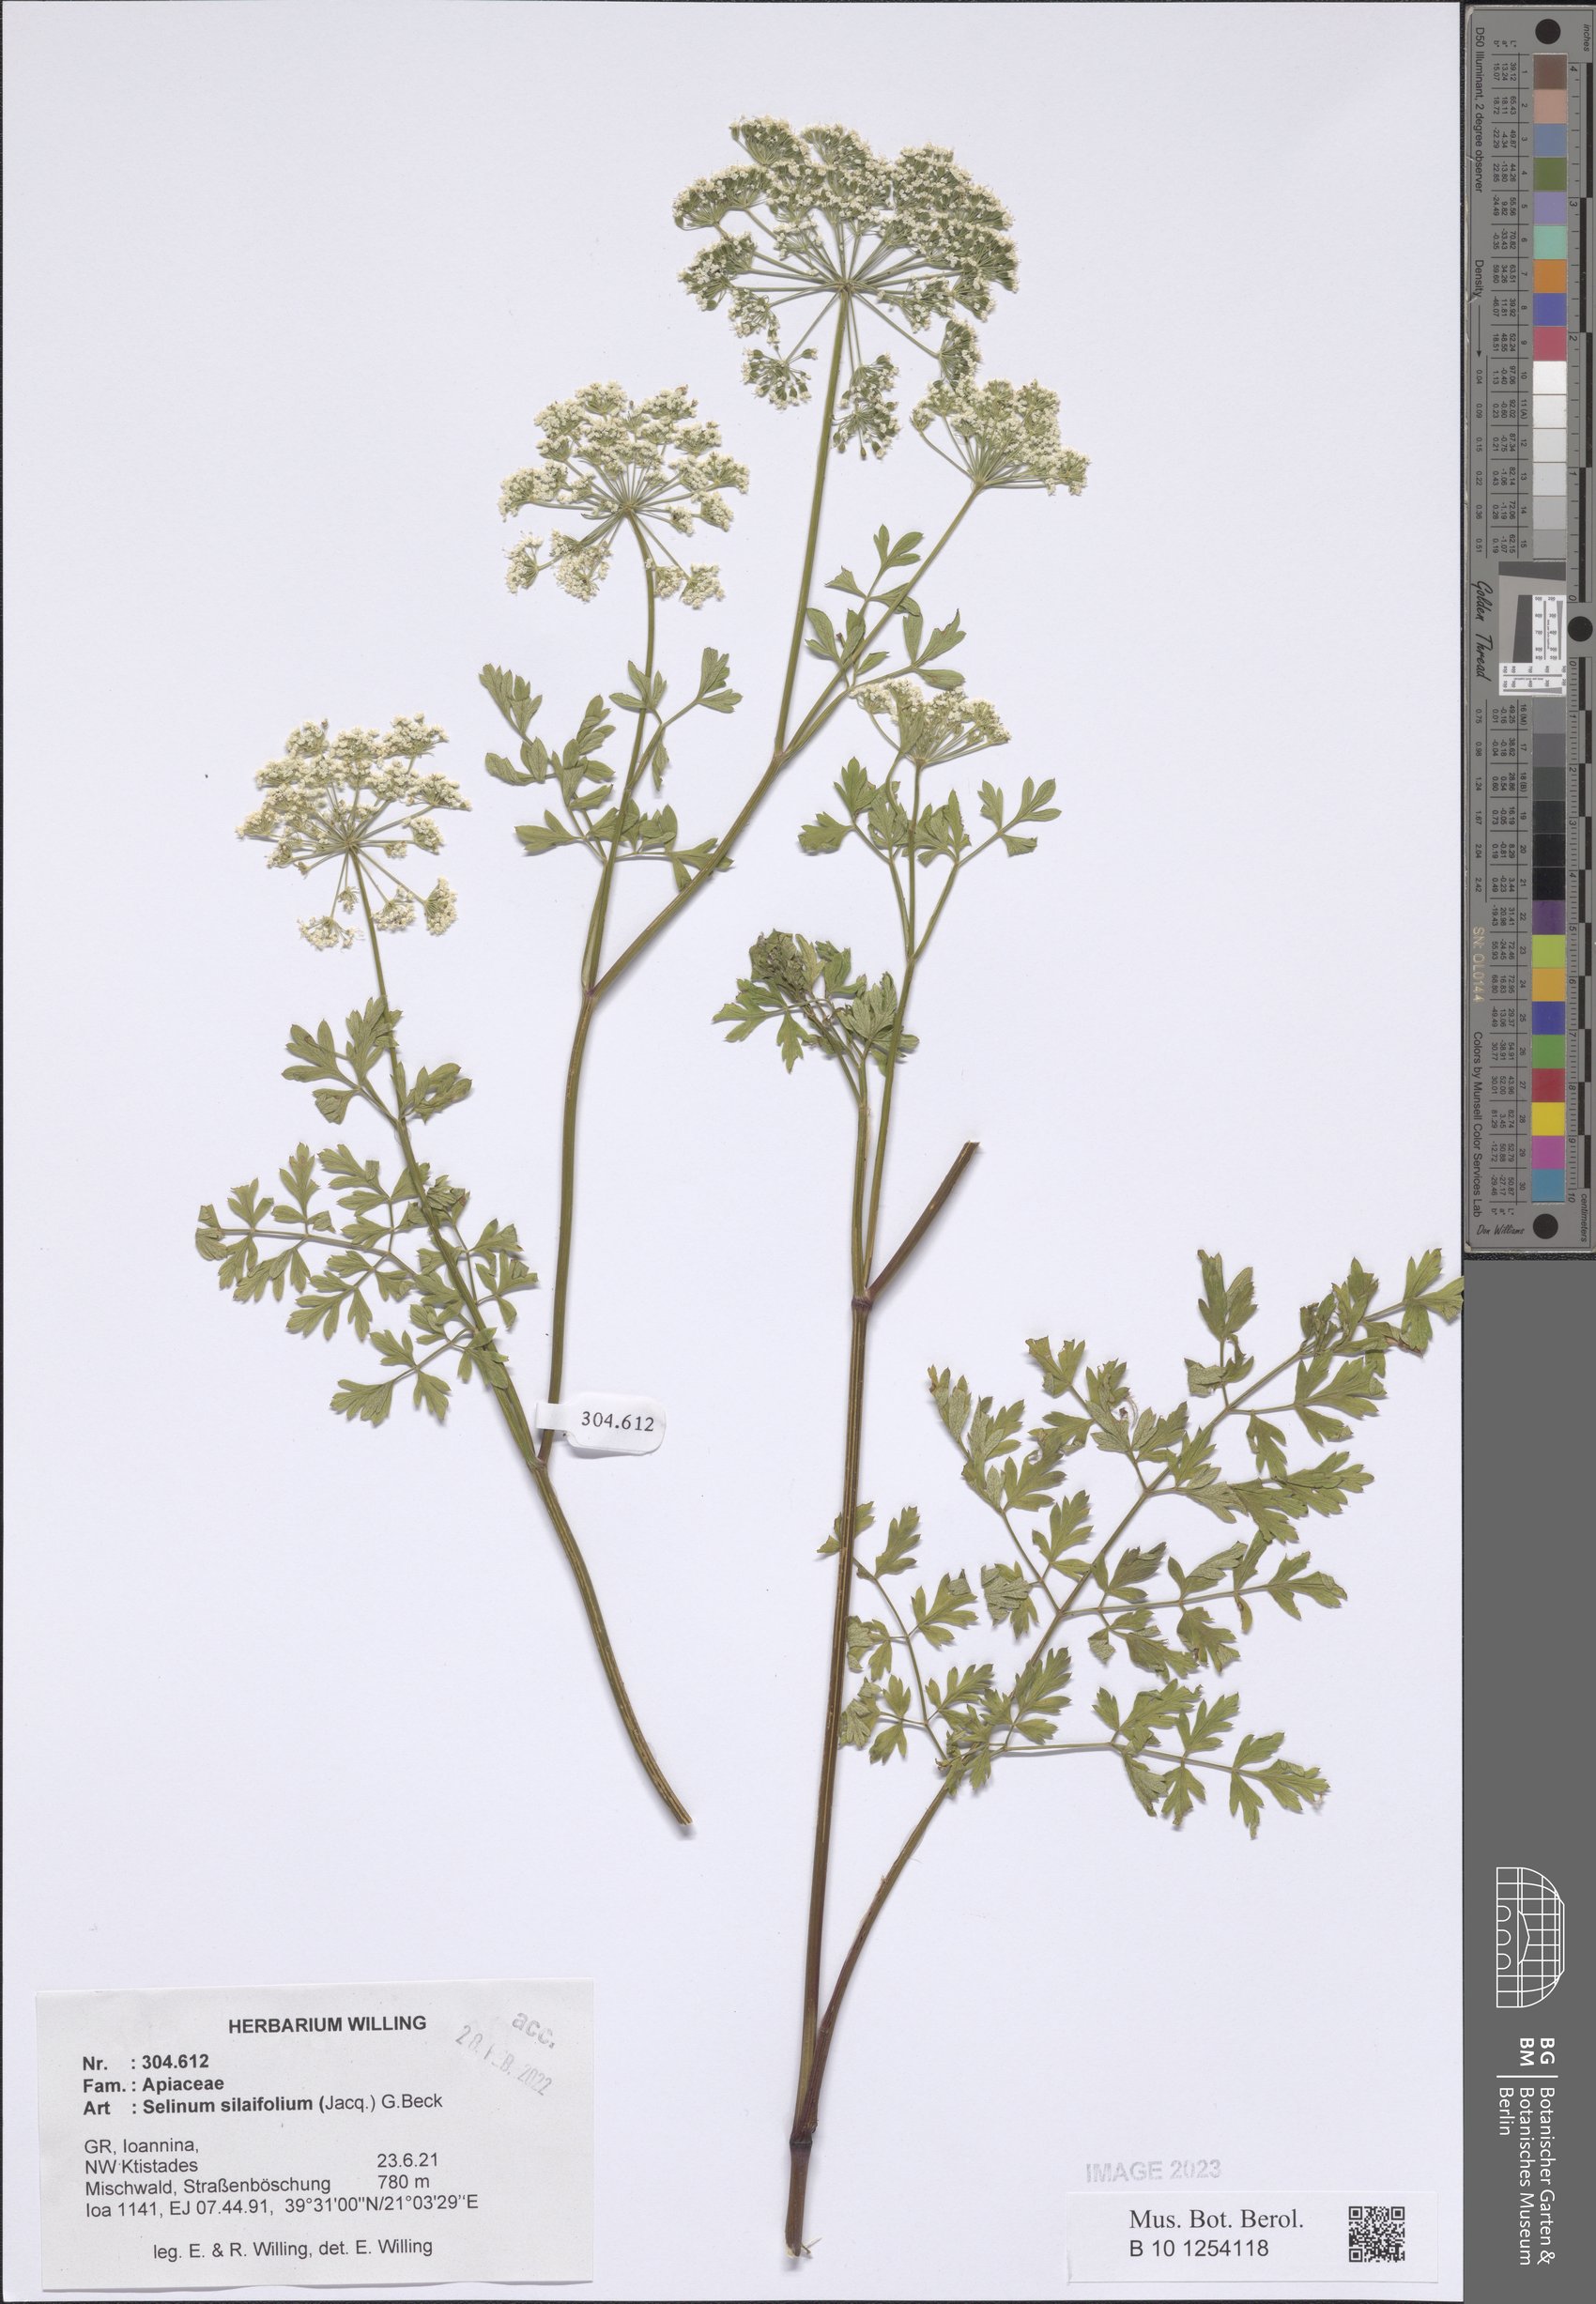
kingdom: Plantae
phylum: Tracheophyta
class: Magnoliopsida
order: Apiales
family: Apiaceae
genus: Katapsuxis
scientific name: Katapsuxis silaifolia
